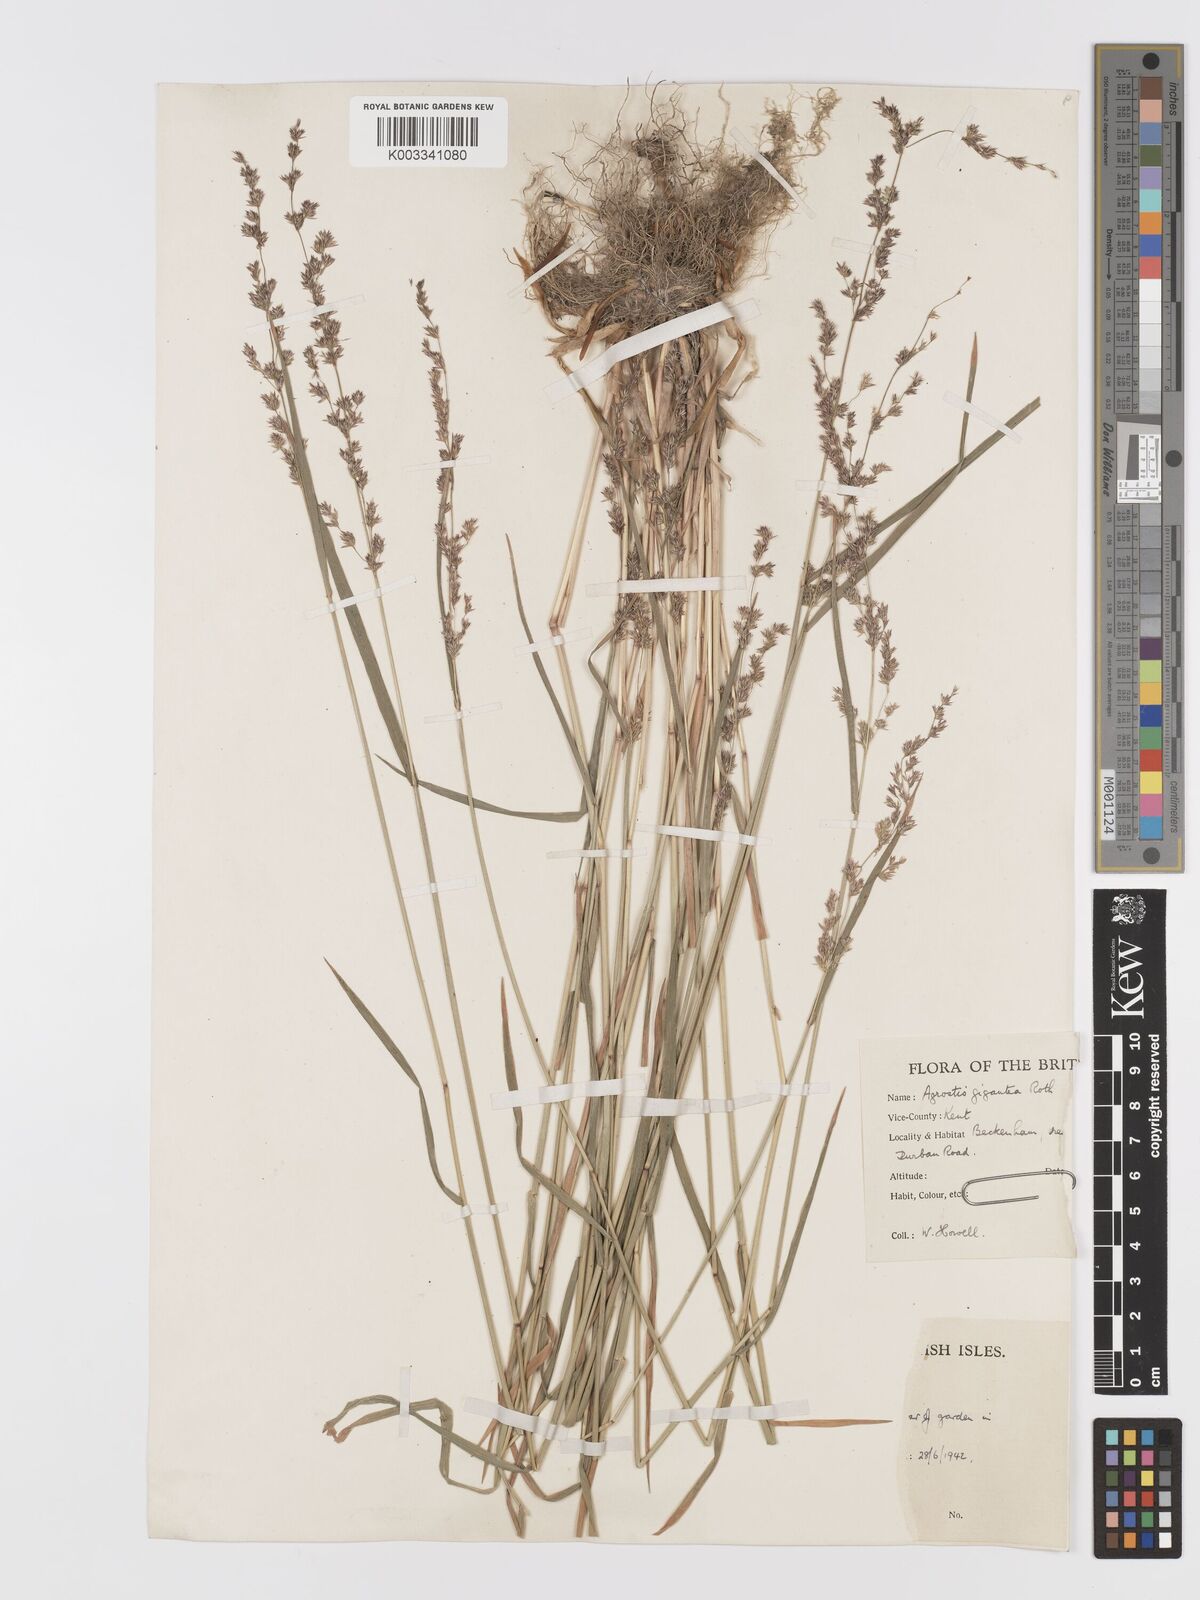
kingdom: Plantae
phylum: Tracheophyta
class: Liliopsida
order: Poales
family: Poaceae
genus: Agrostis
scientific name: Agrostis gigantea
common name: Black bent
